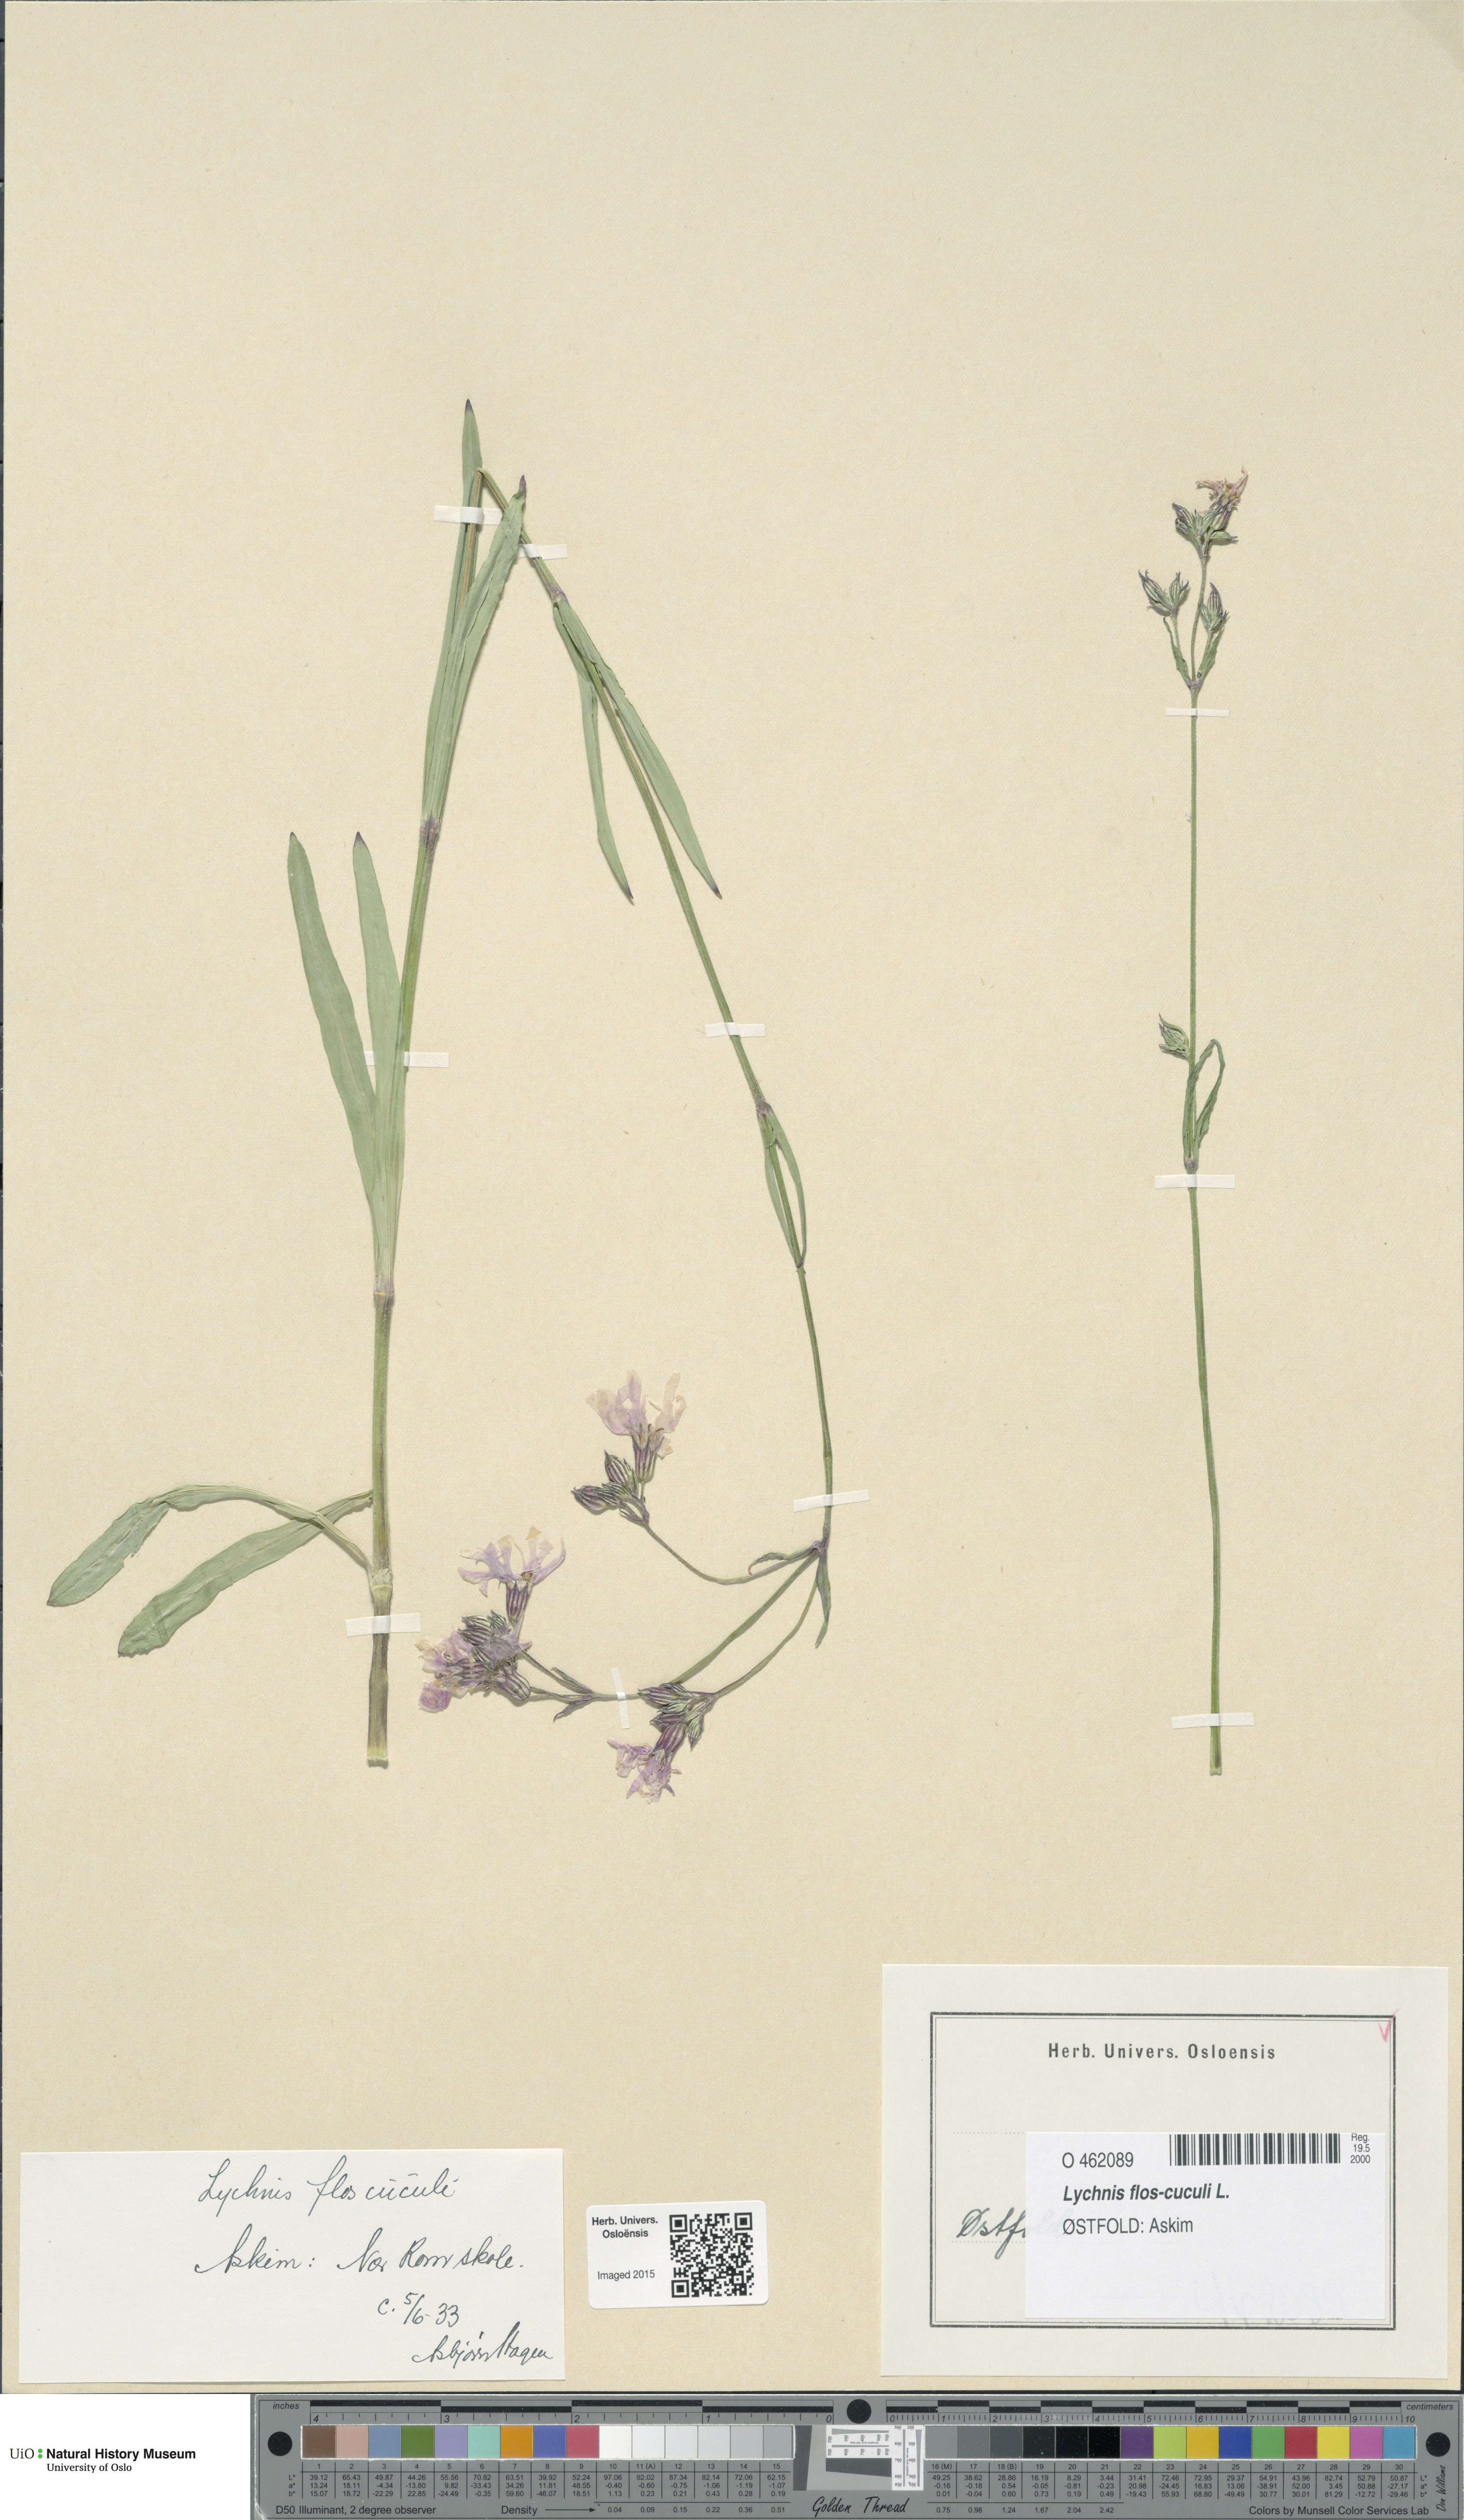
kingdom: Plantae
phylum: Tracheophyta
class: Magnoliopsida
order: Caryophyllales
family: Caryophyllaceae
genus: Silene
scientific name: Silene flos-cuculi
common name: Ragged-robin
